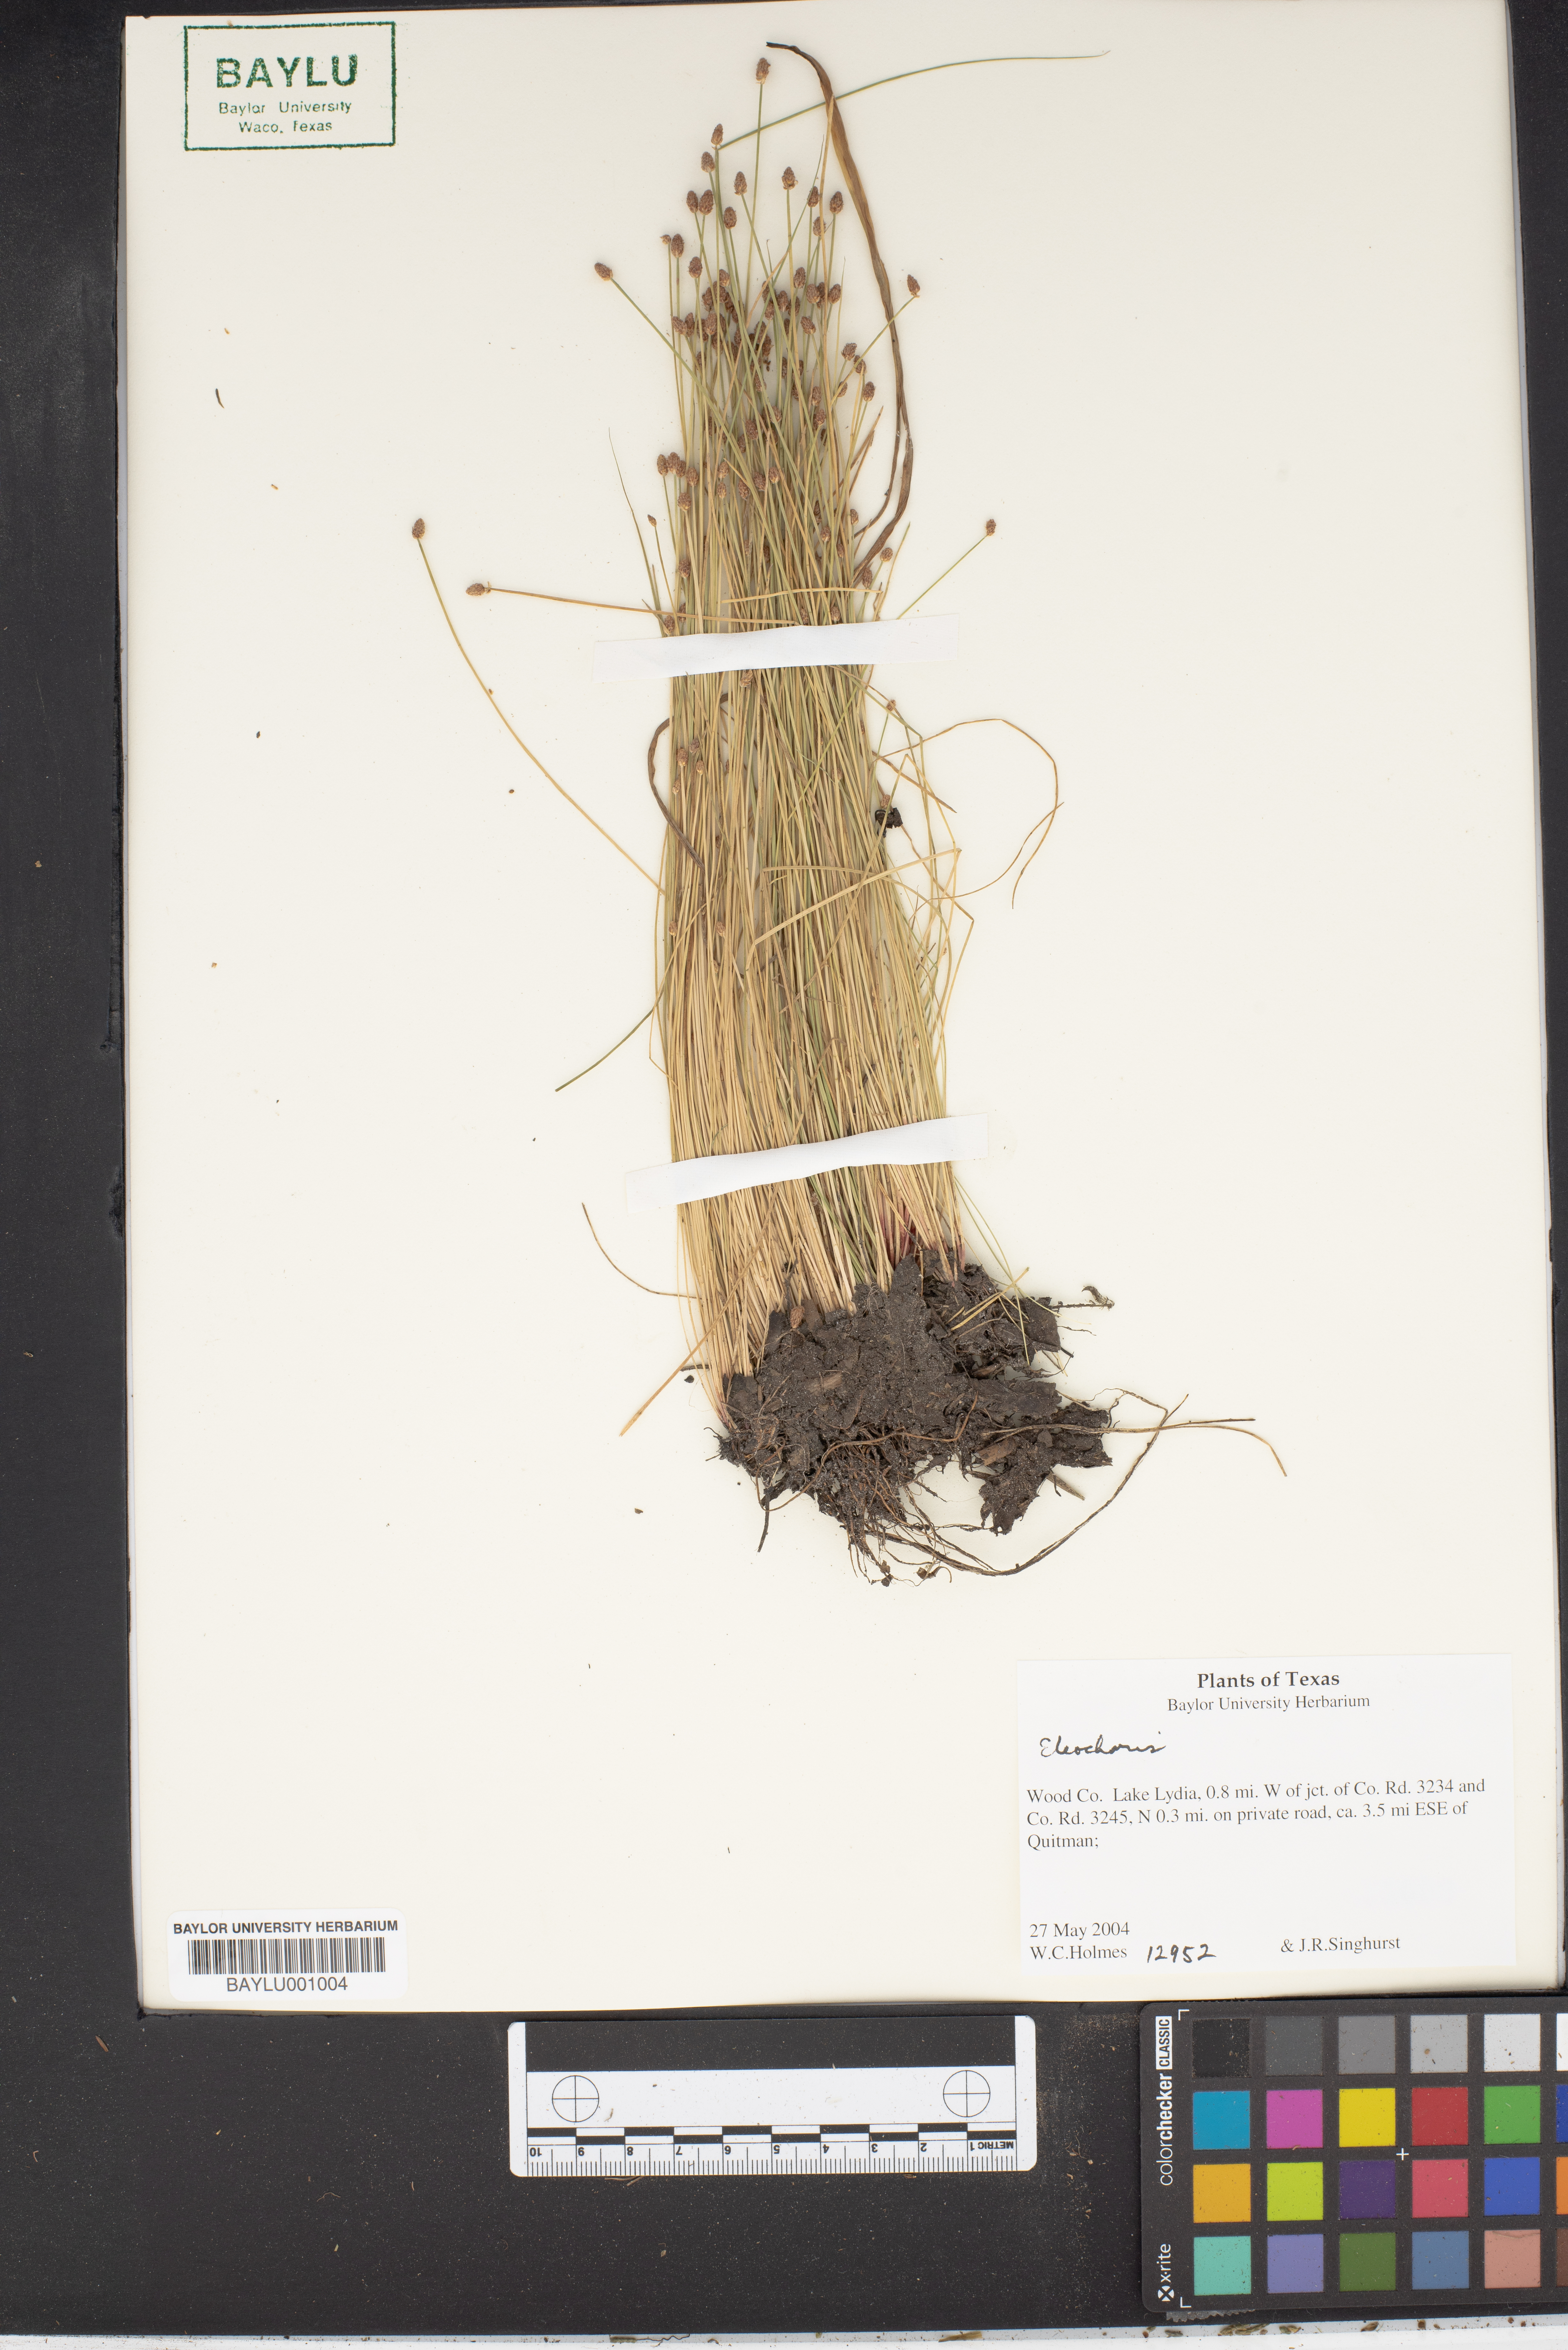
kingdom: Plantae
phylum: Tracheophyta
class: Liliopsida
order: Poales
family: Cyperaceae
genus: Eleocharis
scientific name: Eleocharis
